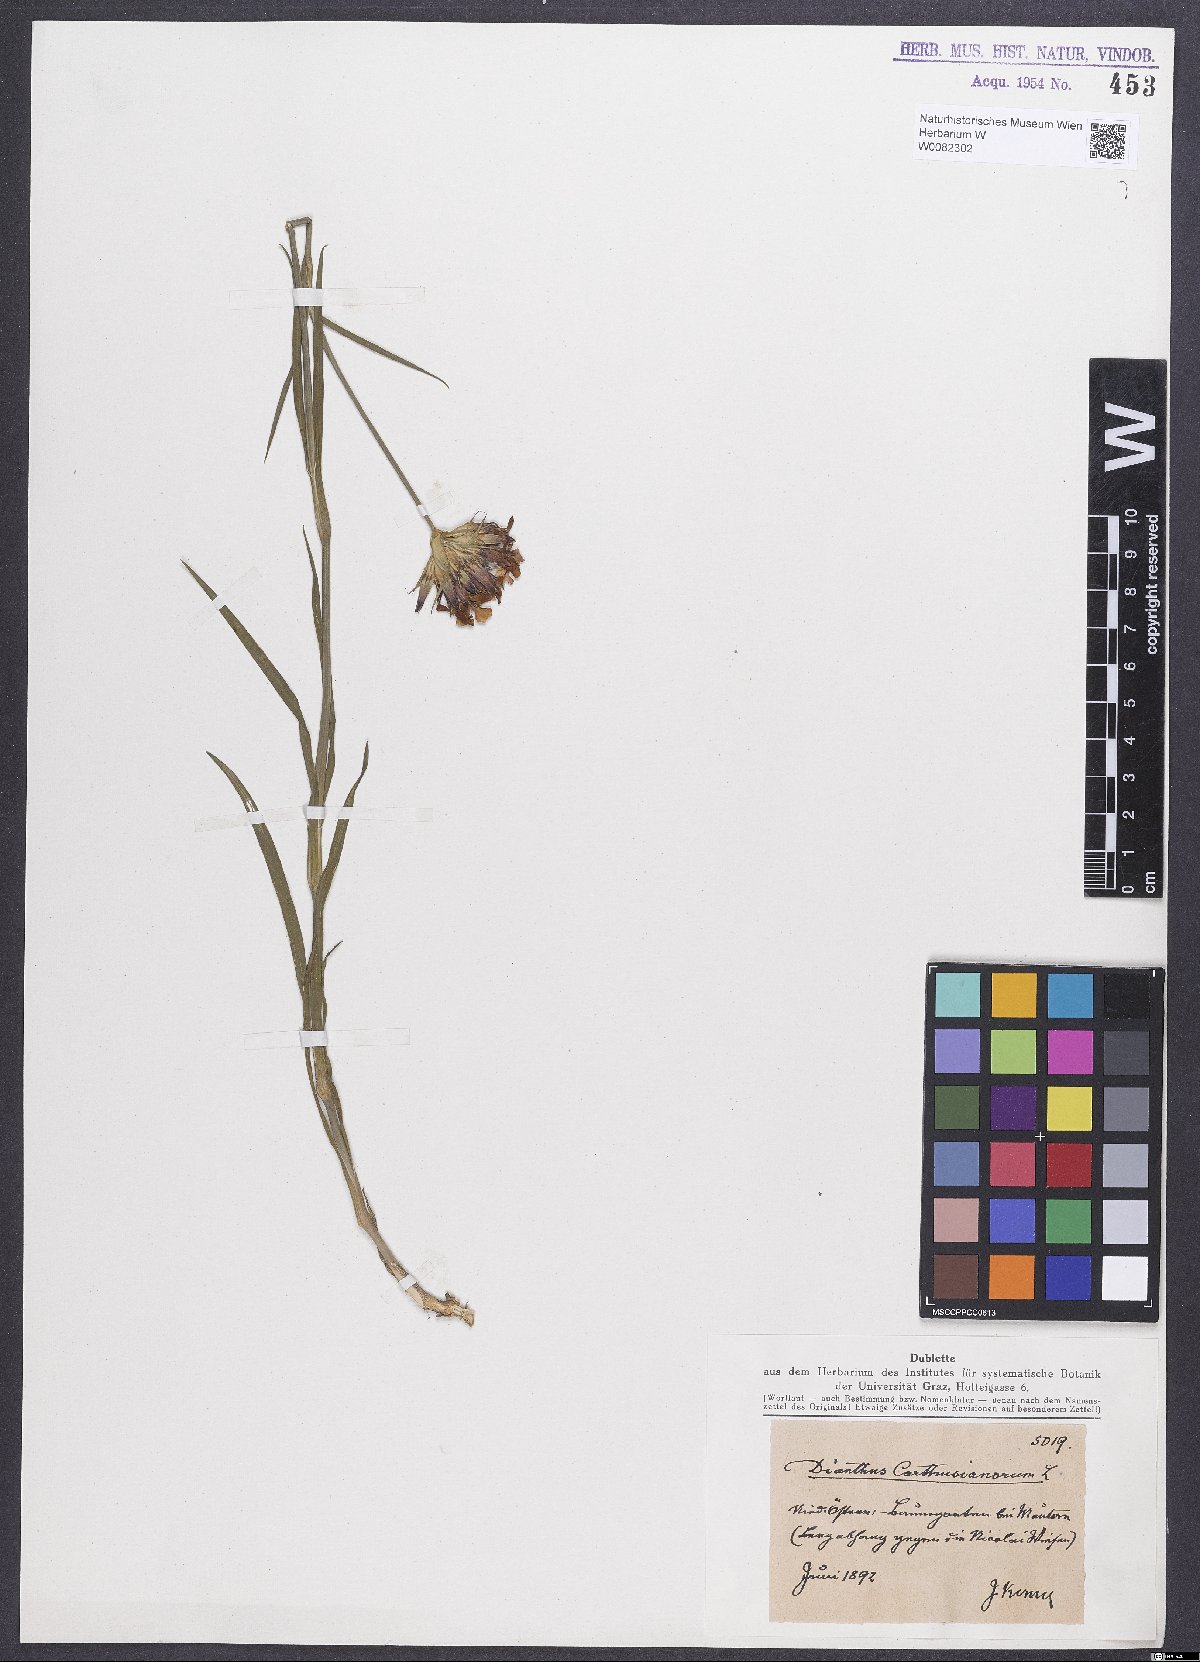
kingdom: Plantae
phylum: Tracheophyta
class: Magnoliopsida
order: Caryophyllales
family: Caryophyllaceae
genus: Dianthus
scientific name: Dianthus carthusianorum
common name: Carthusian pink
